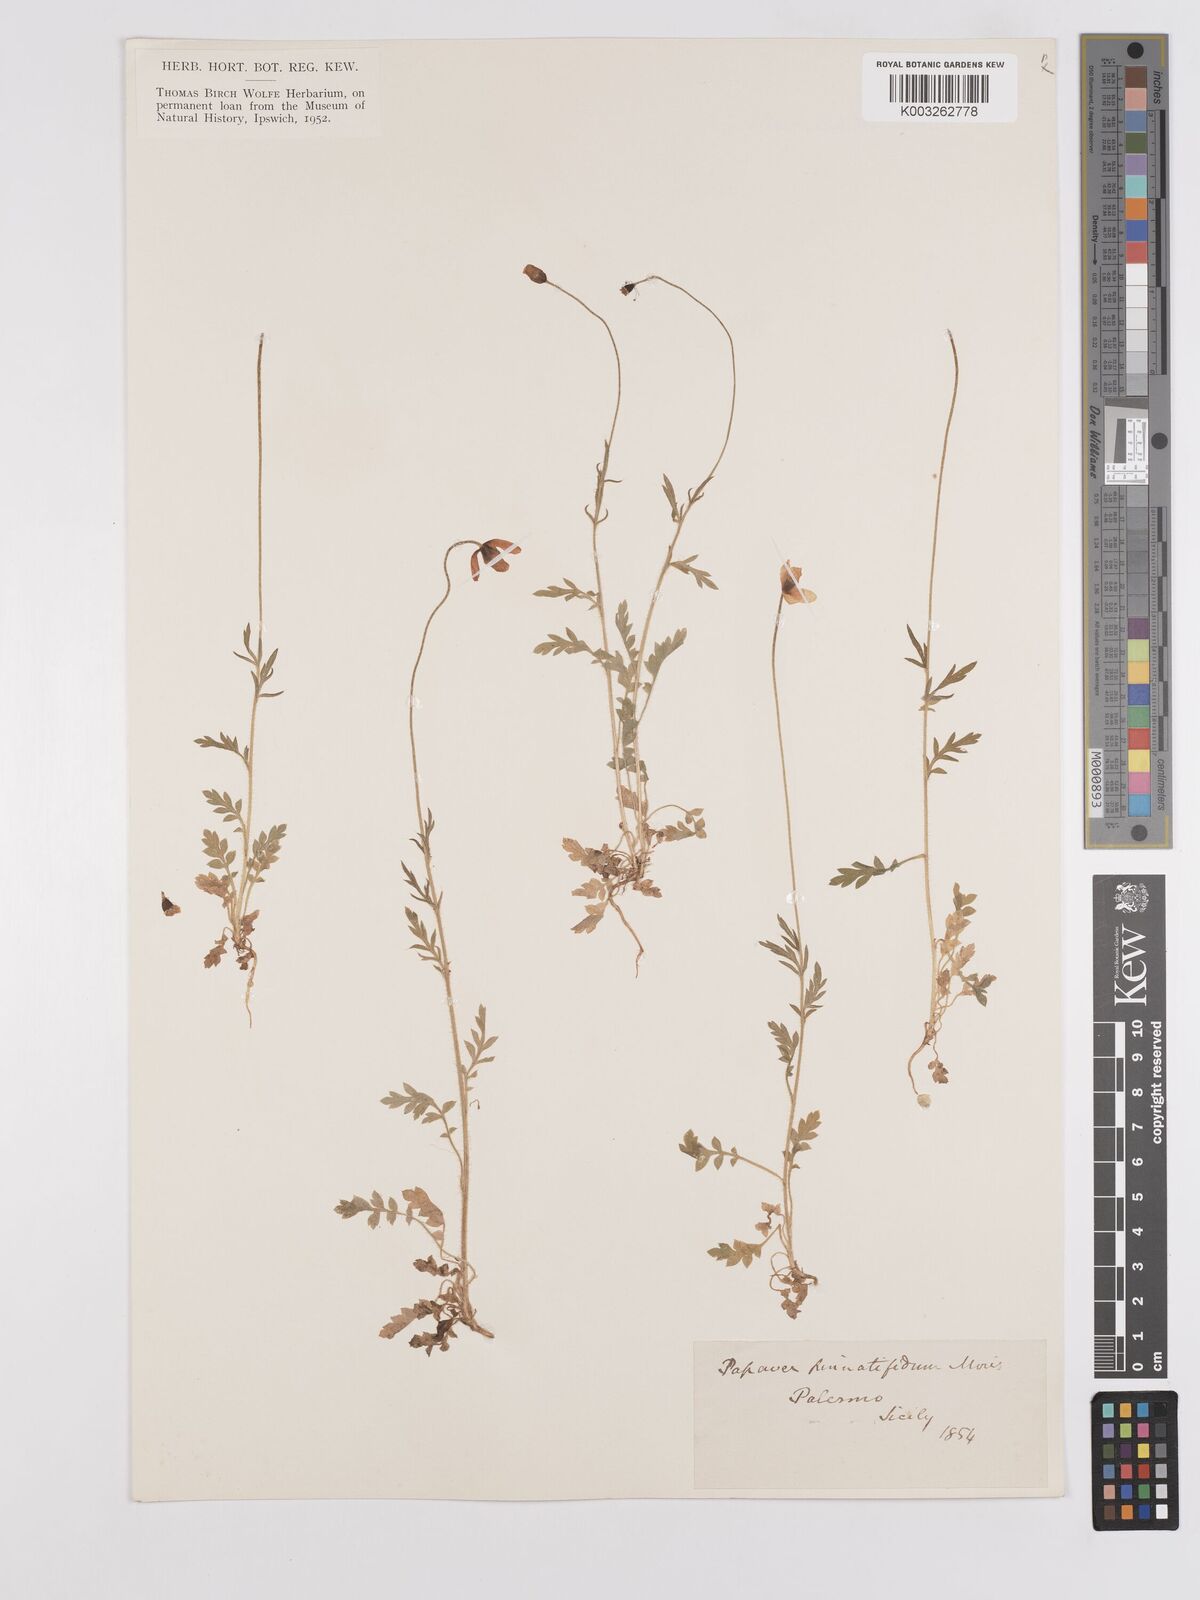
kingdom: Plantae
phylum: Tracheophyta
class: Magnoliopsida
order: Ranunculales
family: Papaveraceae
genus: Papaver
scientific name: Papaver pinnatifidum
